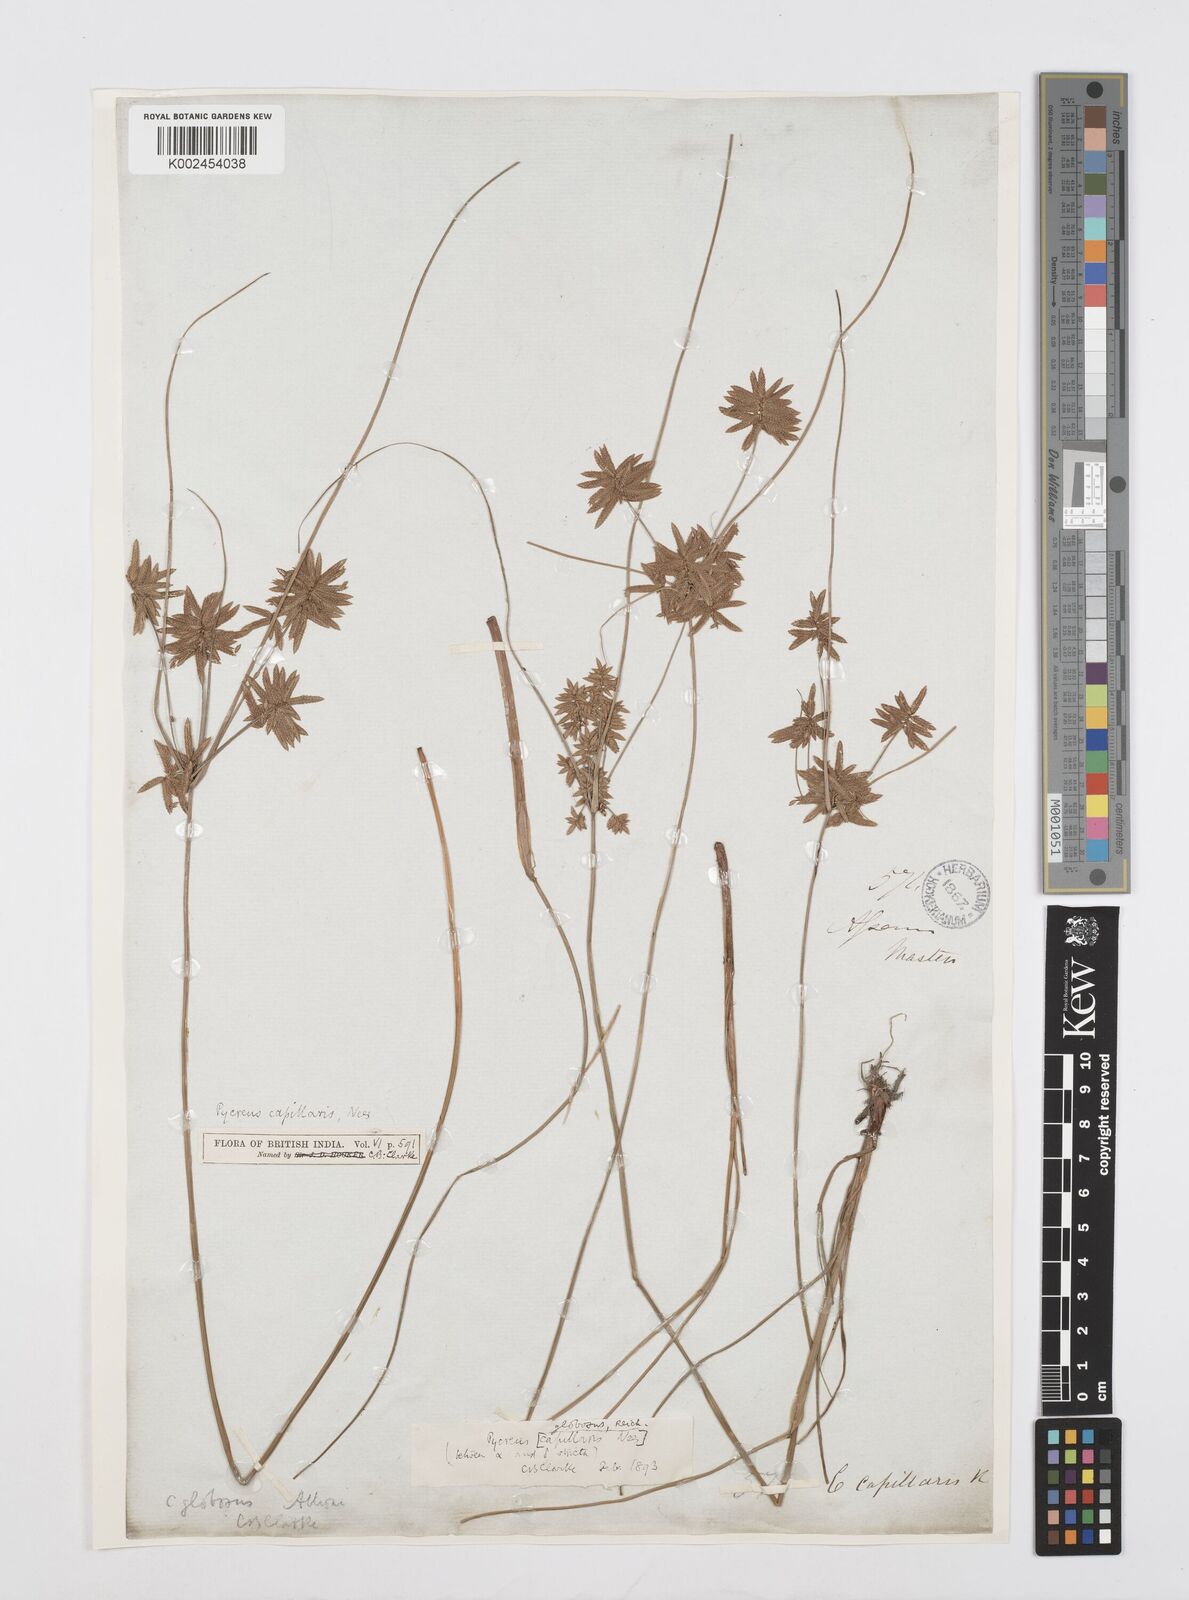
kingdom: Plantae
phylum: Tracheophyta
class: Liliopsida
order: Poales
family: Cyperaceae
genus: Cyperus
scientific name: Cyperus flavidus
